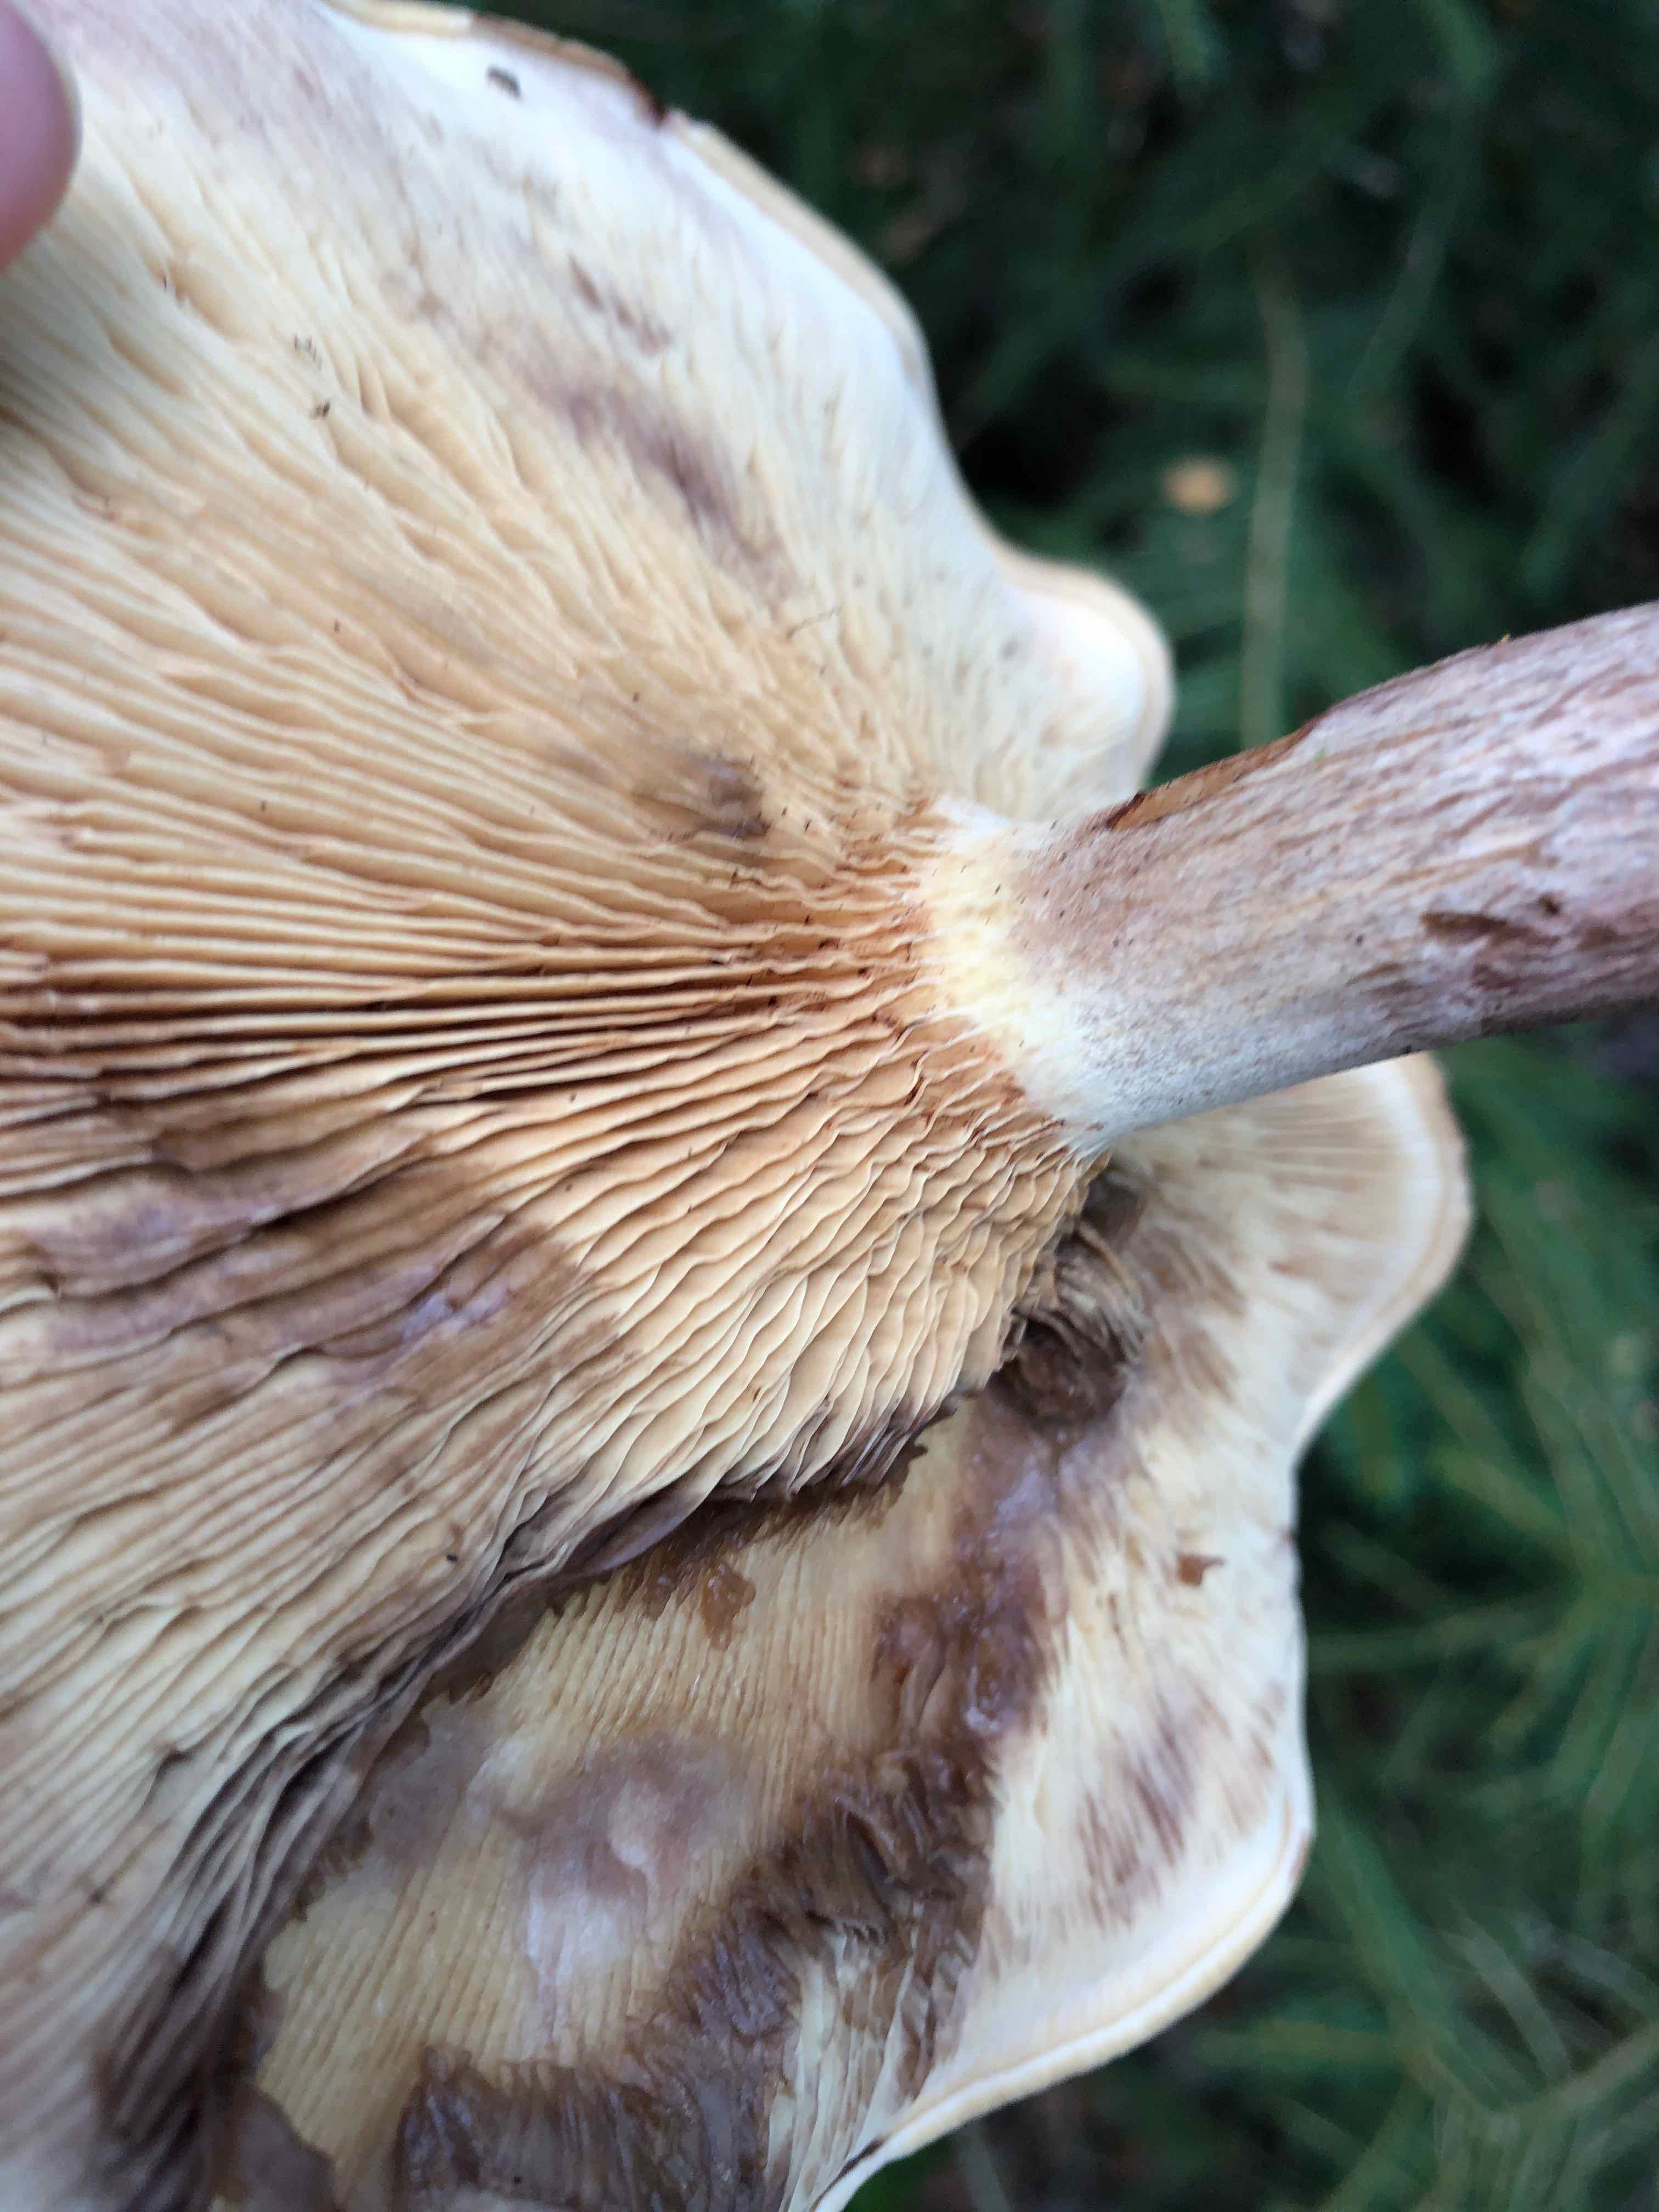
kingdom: Fungi
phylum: Basidiomycota
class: Agaricomycetes
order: Boletales
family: Paxillaceae
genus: Paxillus
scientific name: Paxillus involutus
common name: almindelig netbladhat
